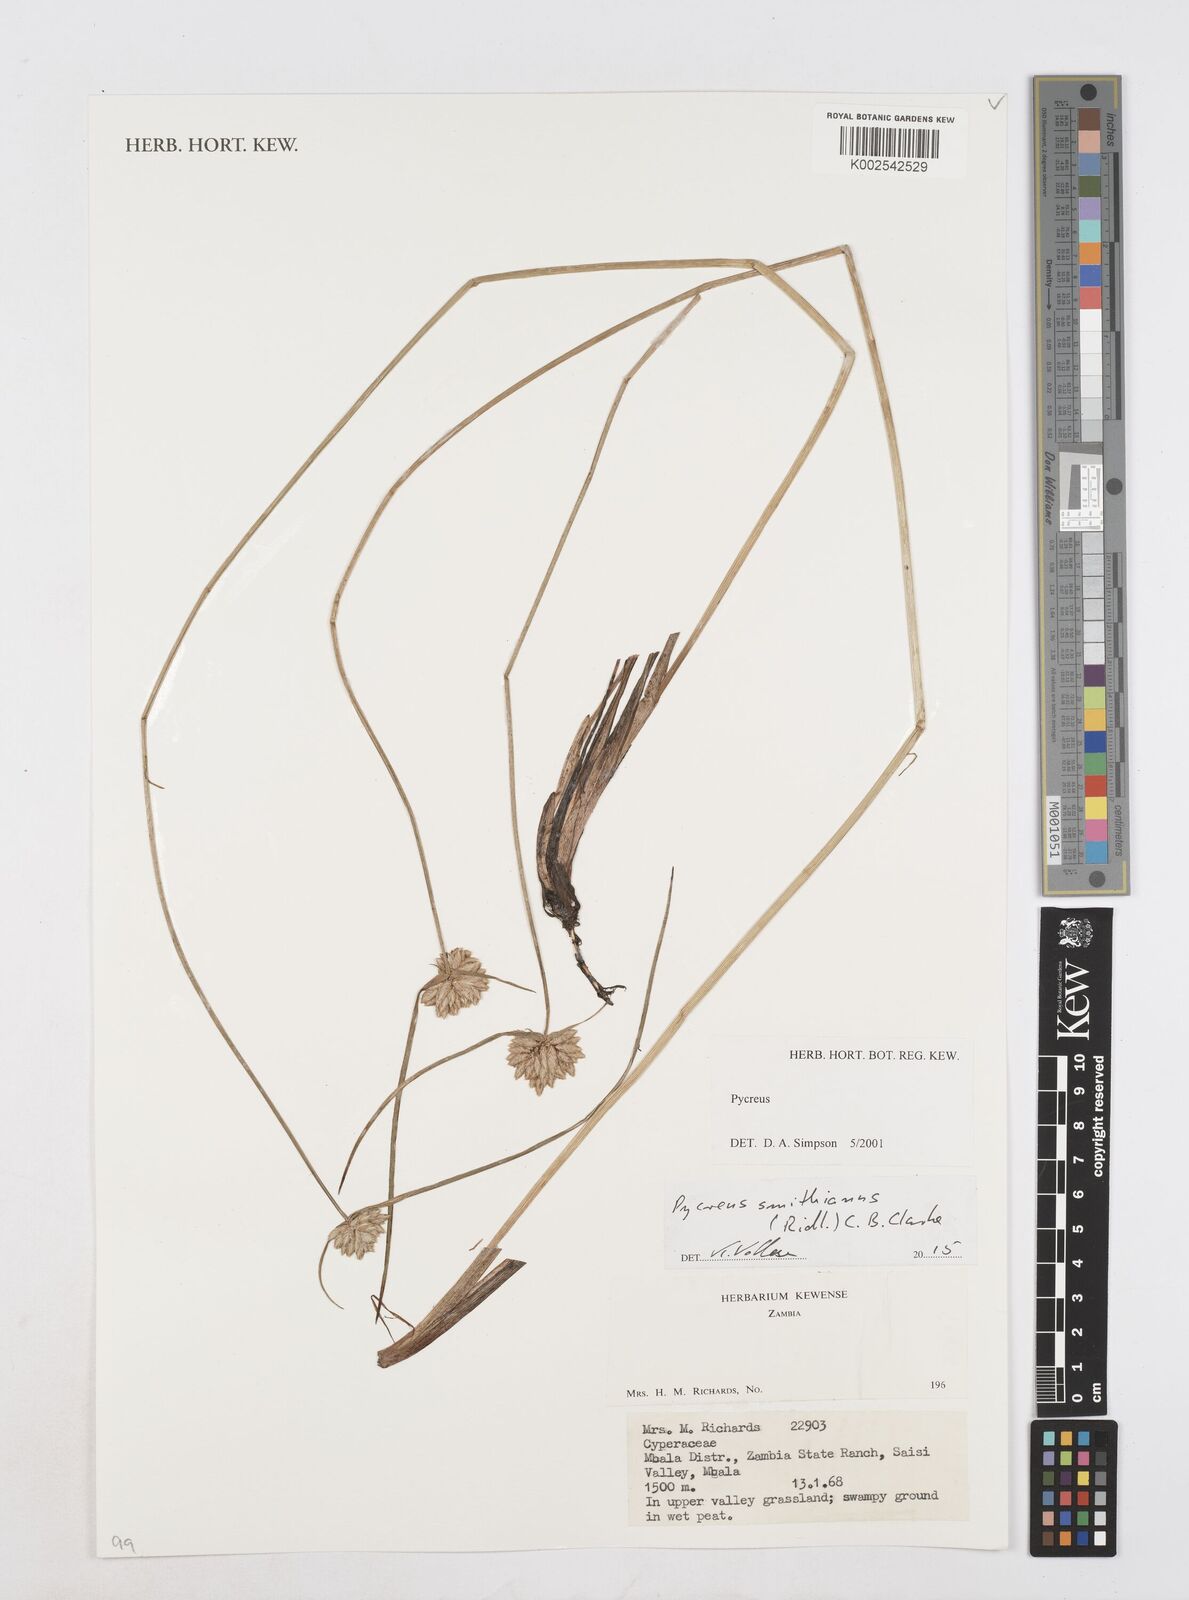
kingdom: Plantae
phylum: Tracheophyta
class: Liliopsida
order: Poales
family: Cyperaceae
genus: Cyperus
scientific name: Cyperus smithianus
